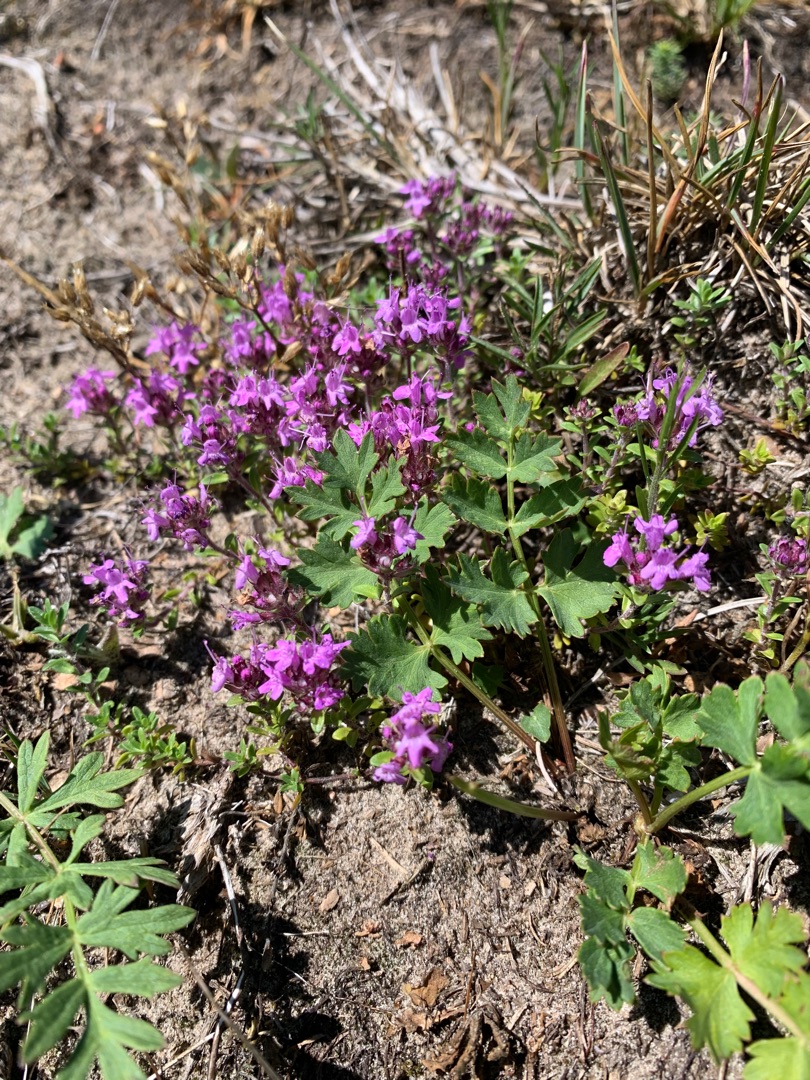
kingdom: Plantae
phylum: Tracheophyta
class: Magnoliopsida
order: Lamiales
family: Lamiaceae
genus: Thymus
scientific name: Thymus serpyllum
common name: Smalbladet timian
